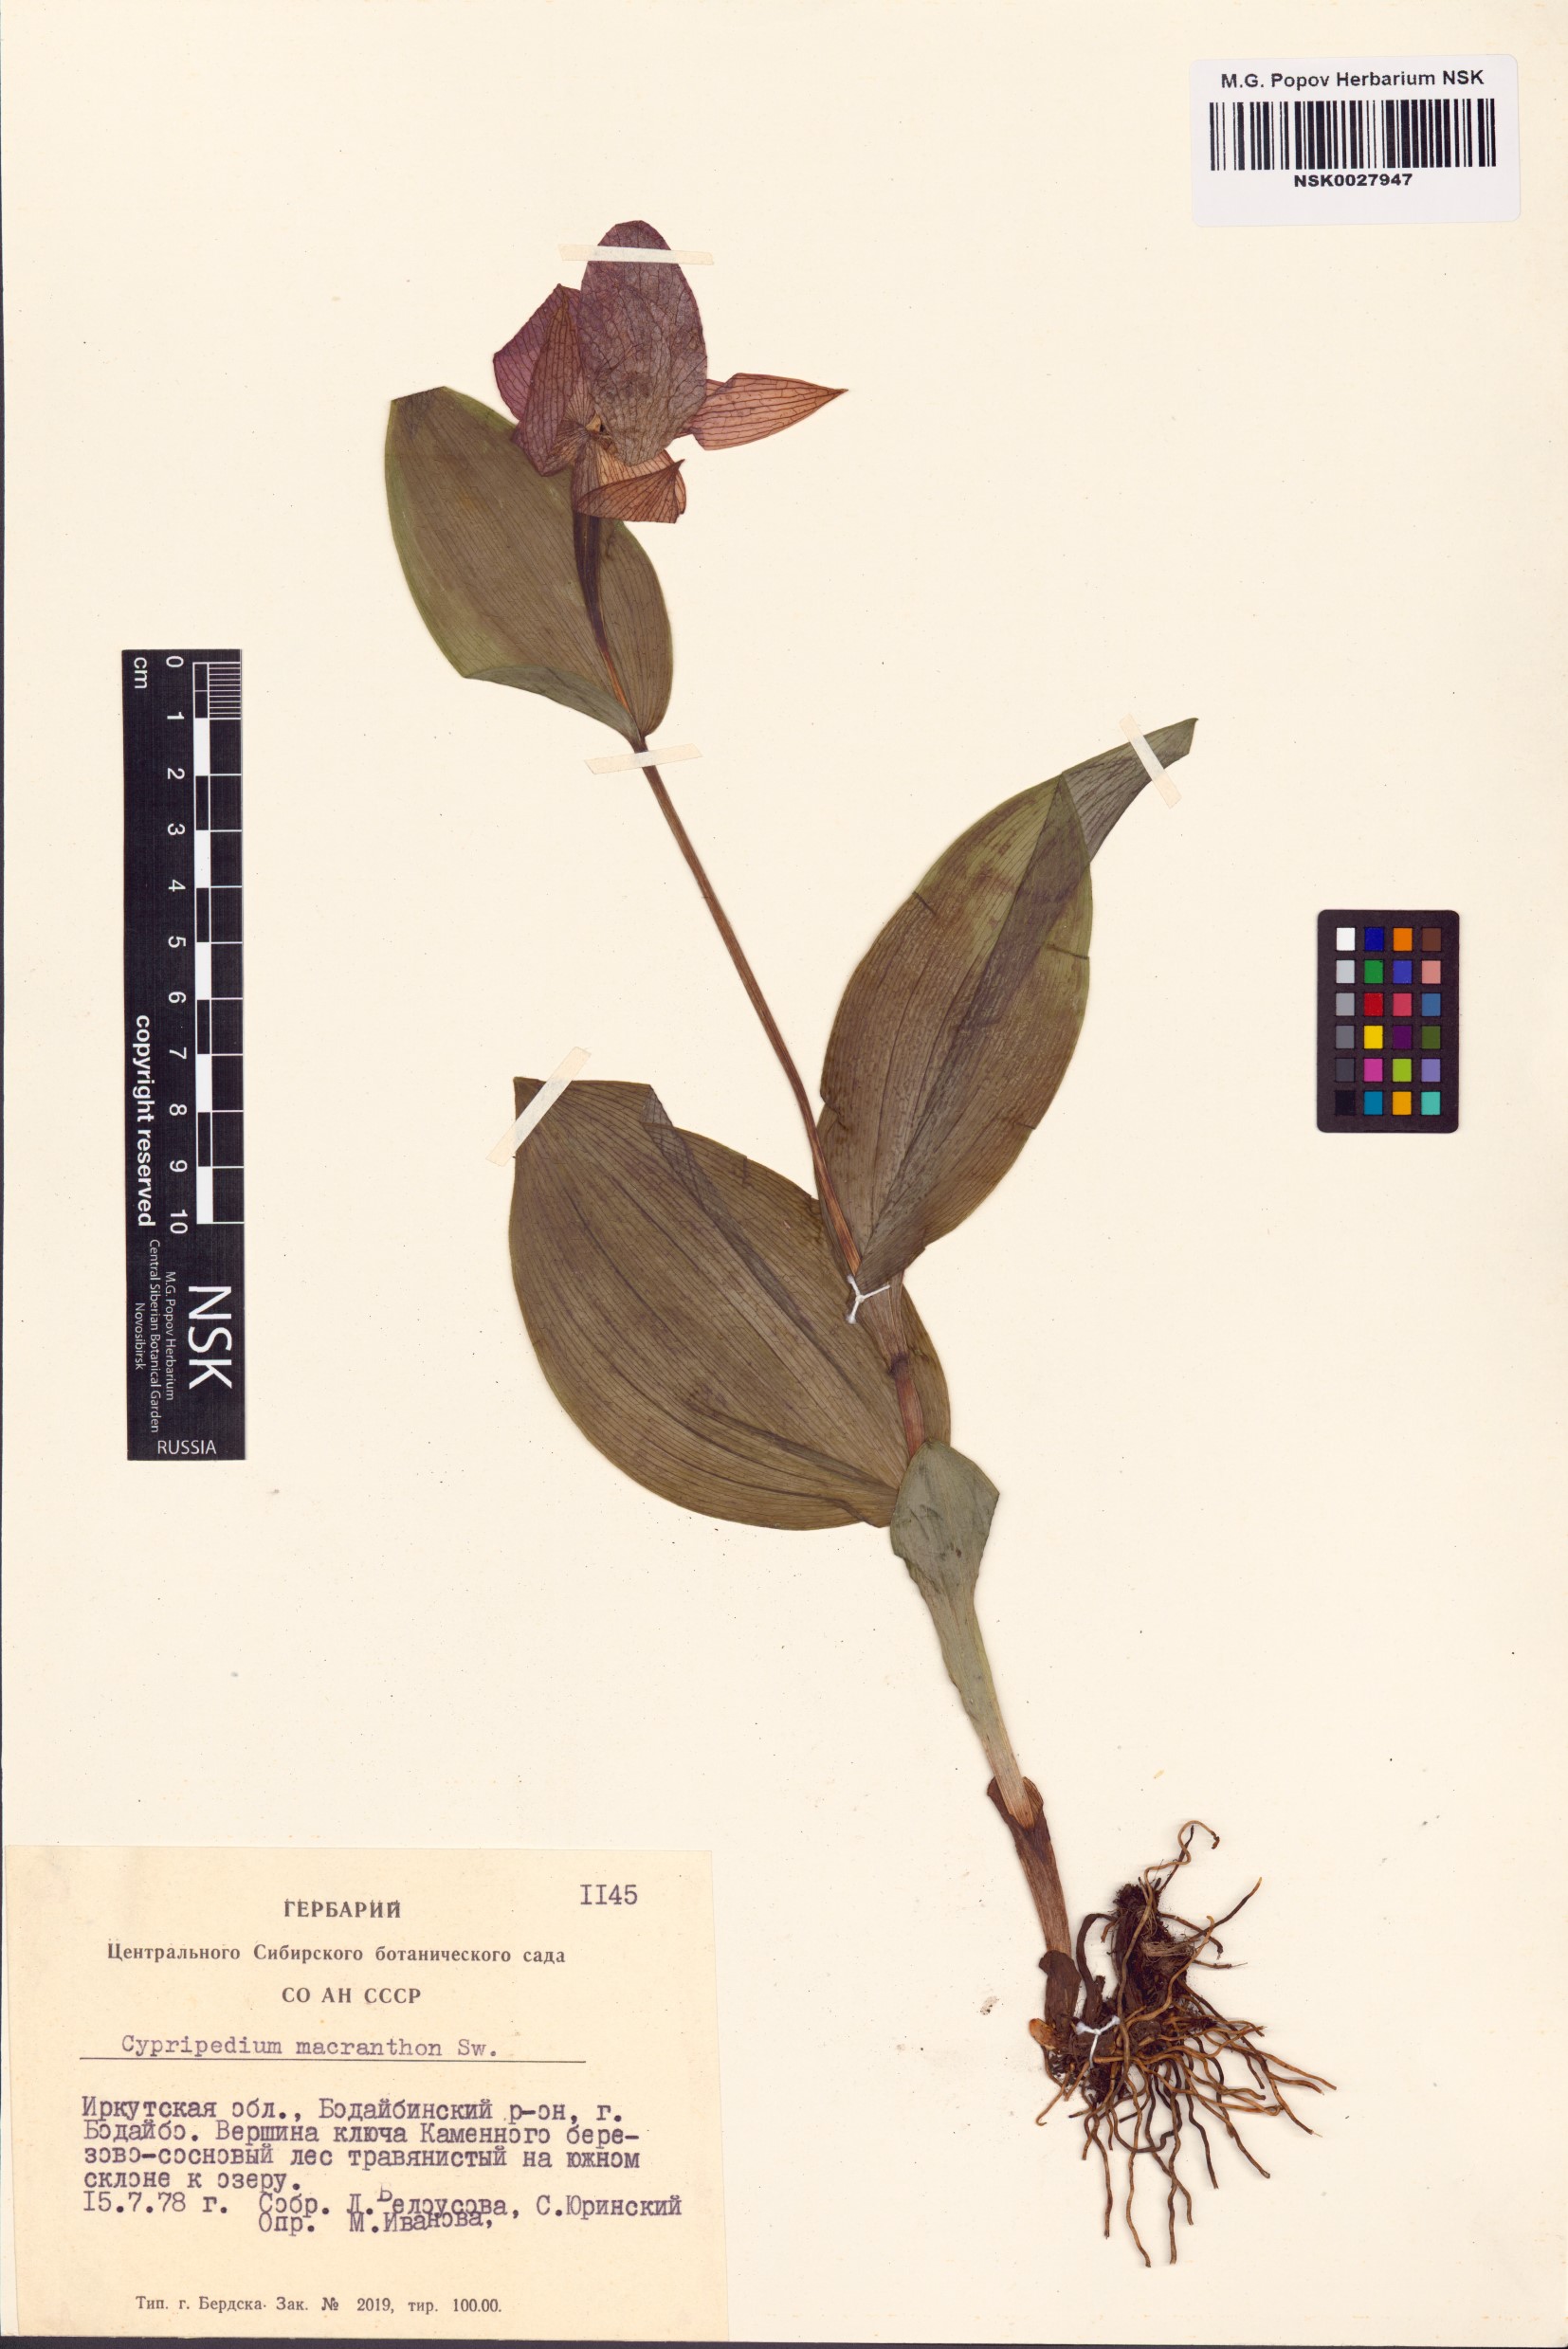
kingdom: Plantae
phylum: Tracheophyta
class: Liliopsida
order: Asparagales
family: Orchidaceae
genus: Cypripedium
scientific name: Cypripedium macranthos
